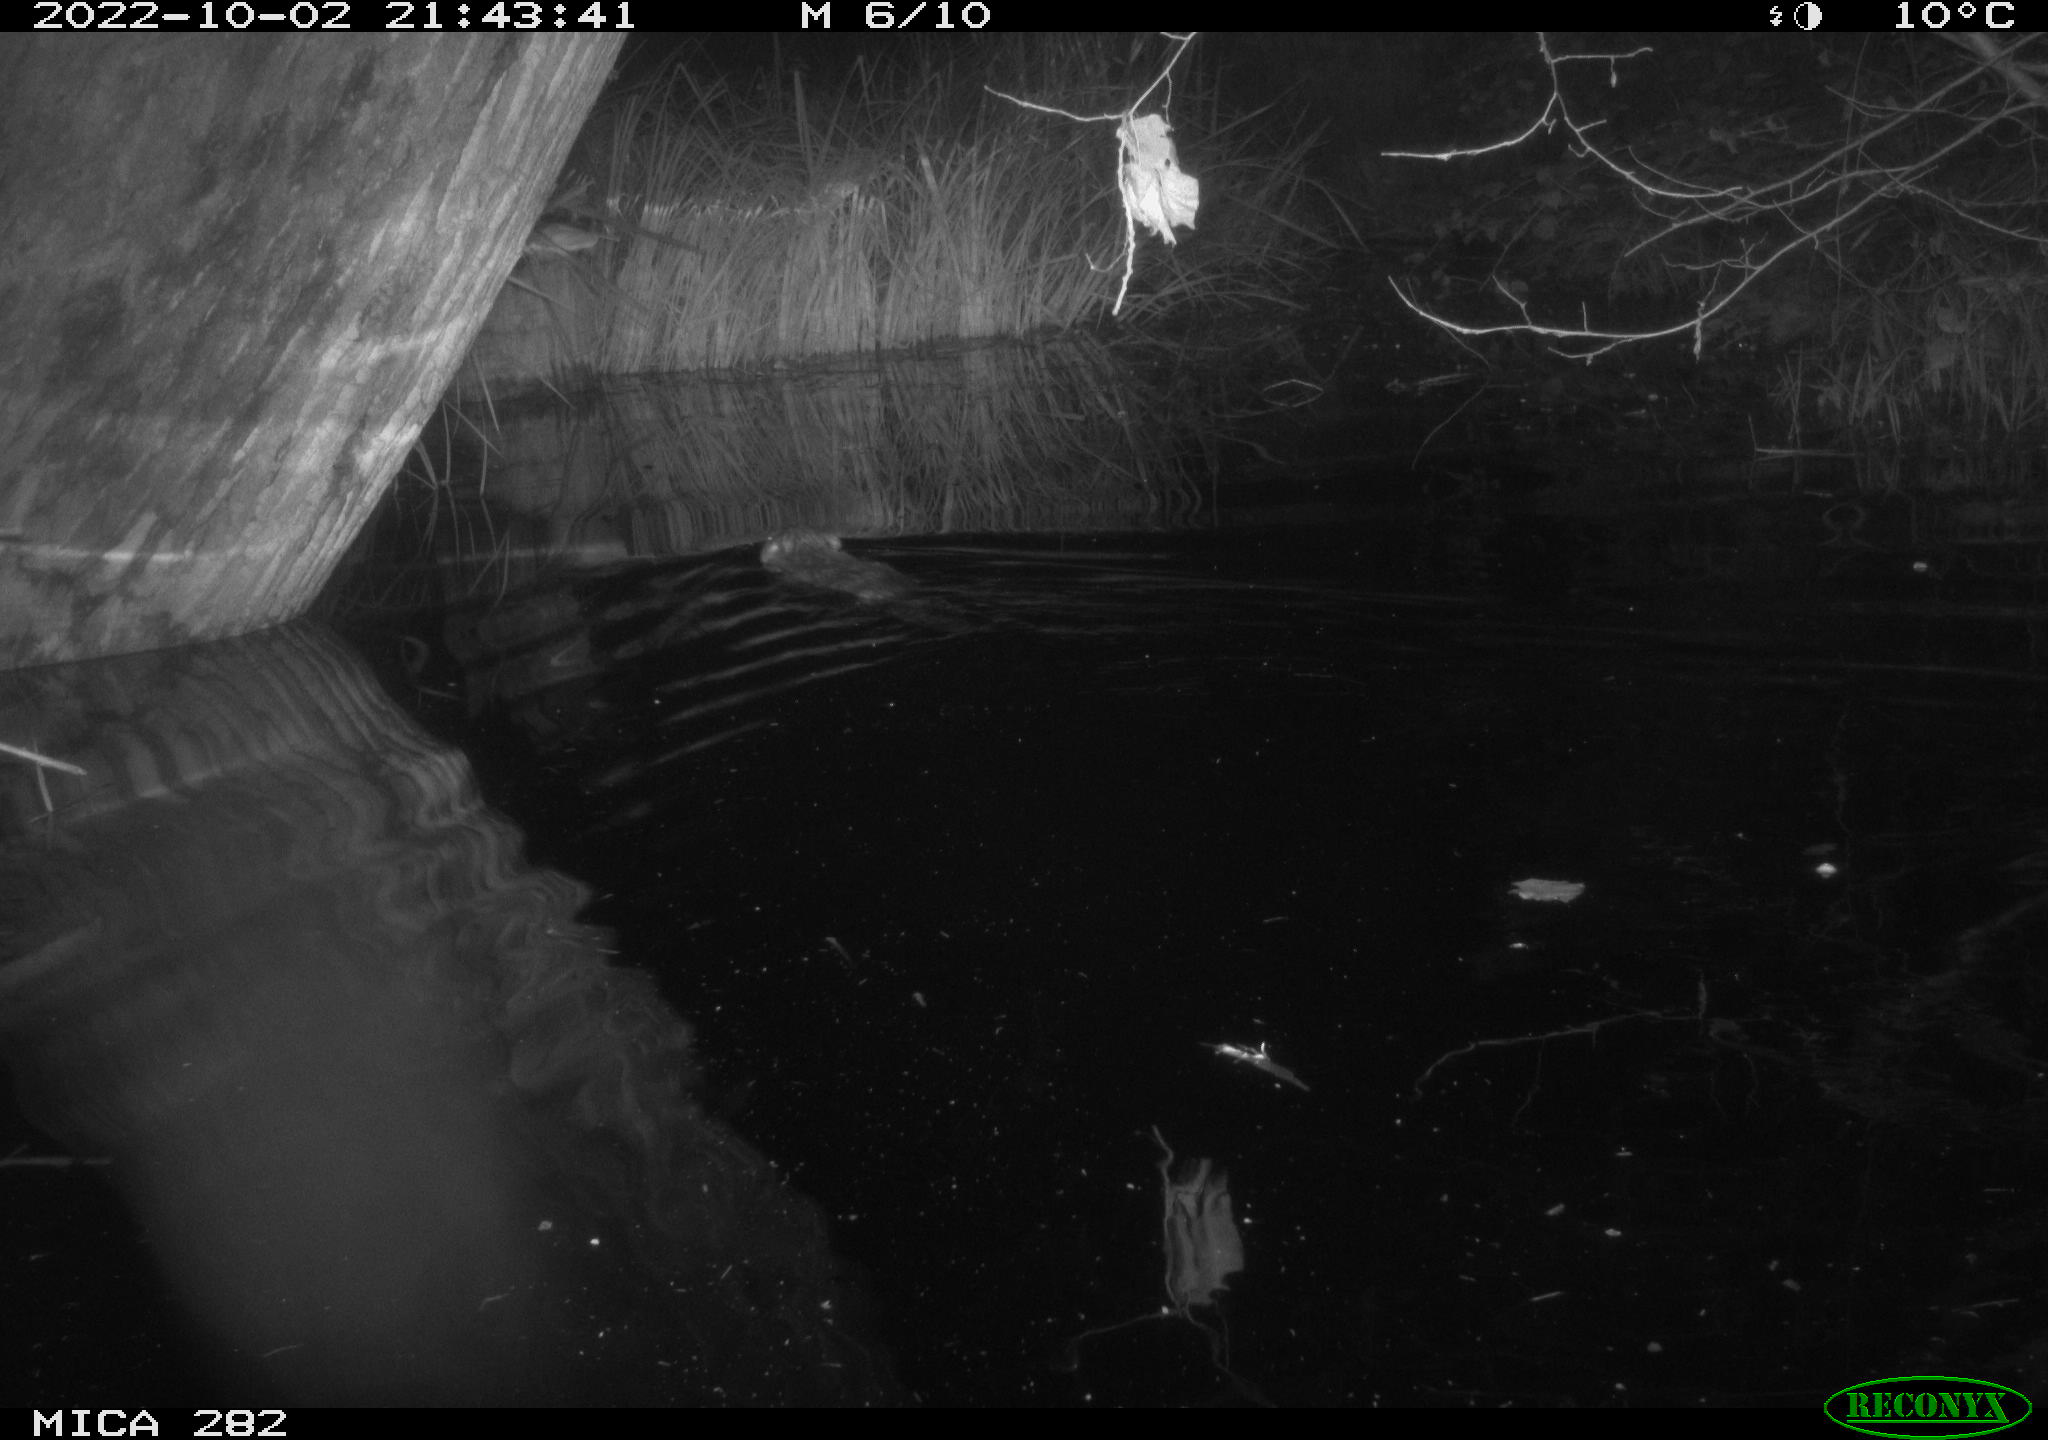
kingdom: Animalia
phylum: Chordata
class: Mammalia
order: Rodentia
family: Castoridae
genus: Castor
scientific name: Castor fiber
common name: Eurasian beaver
